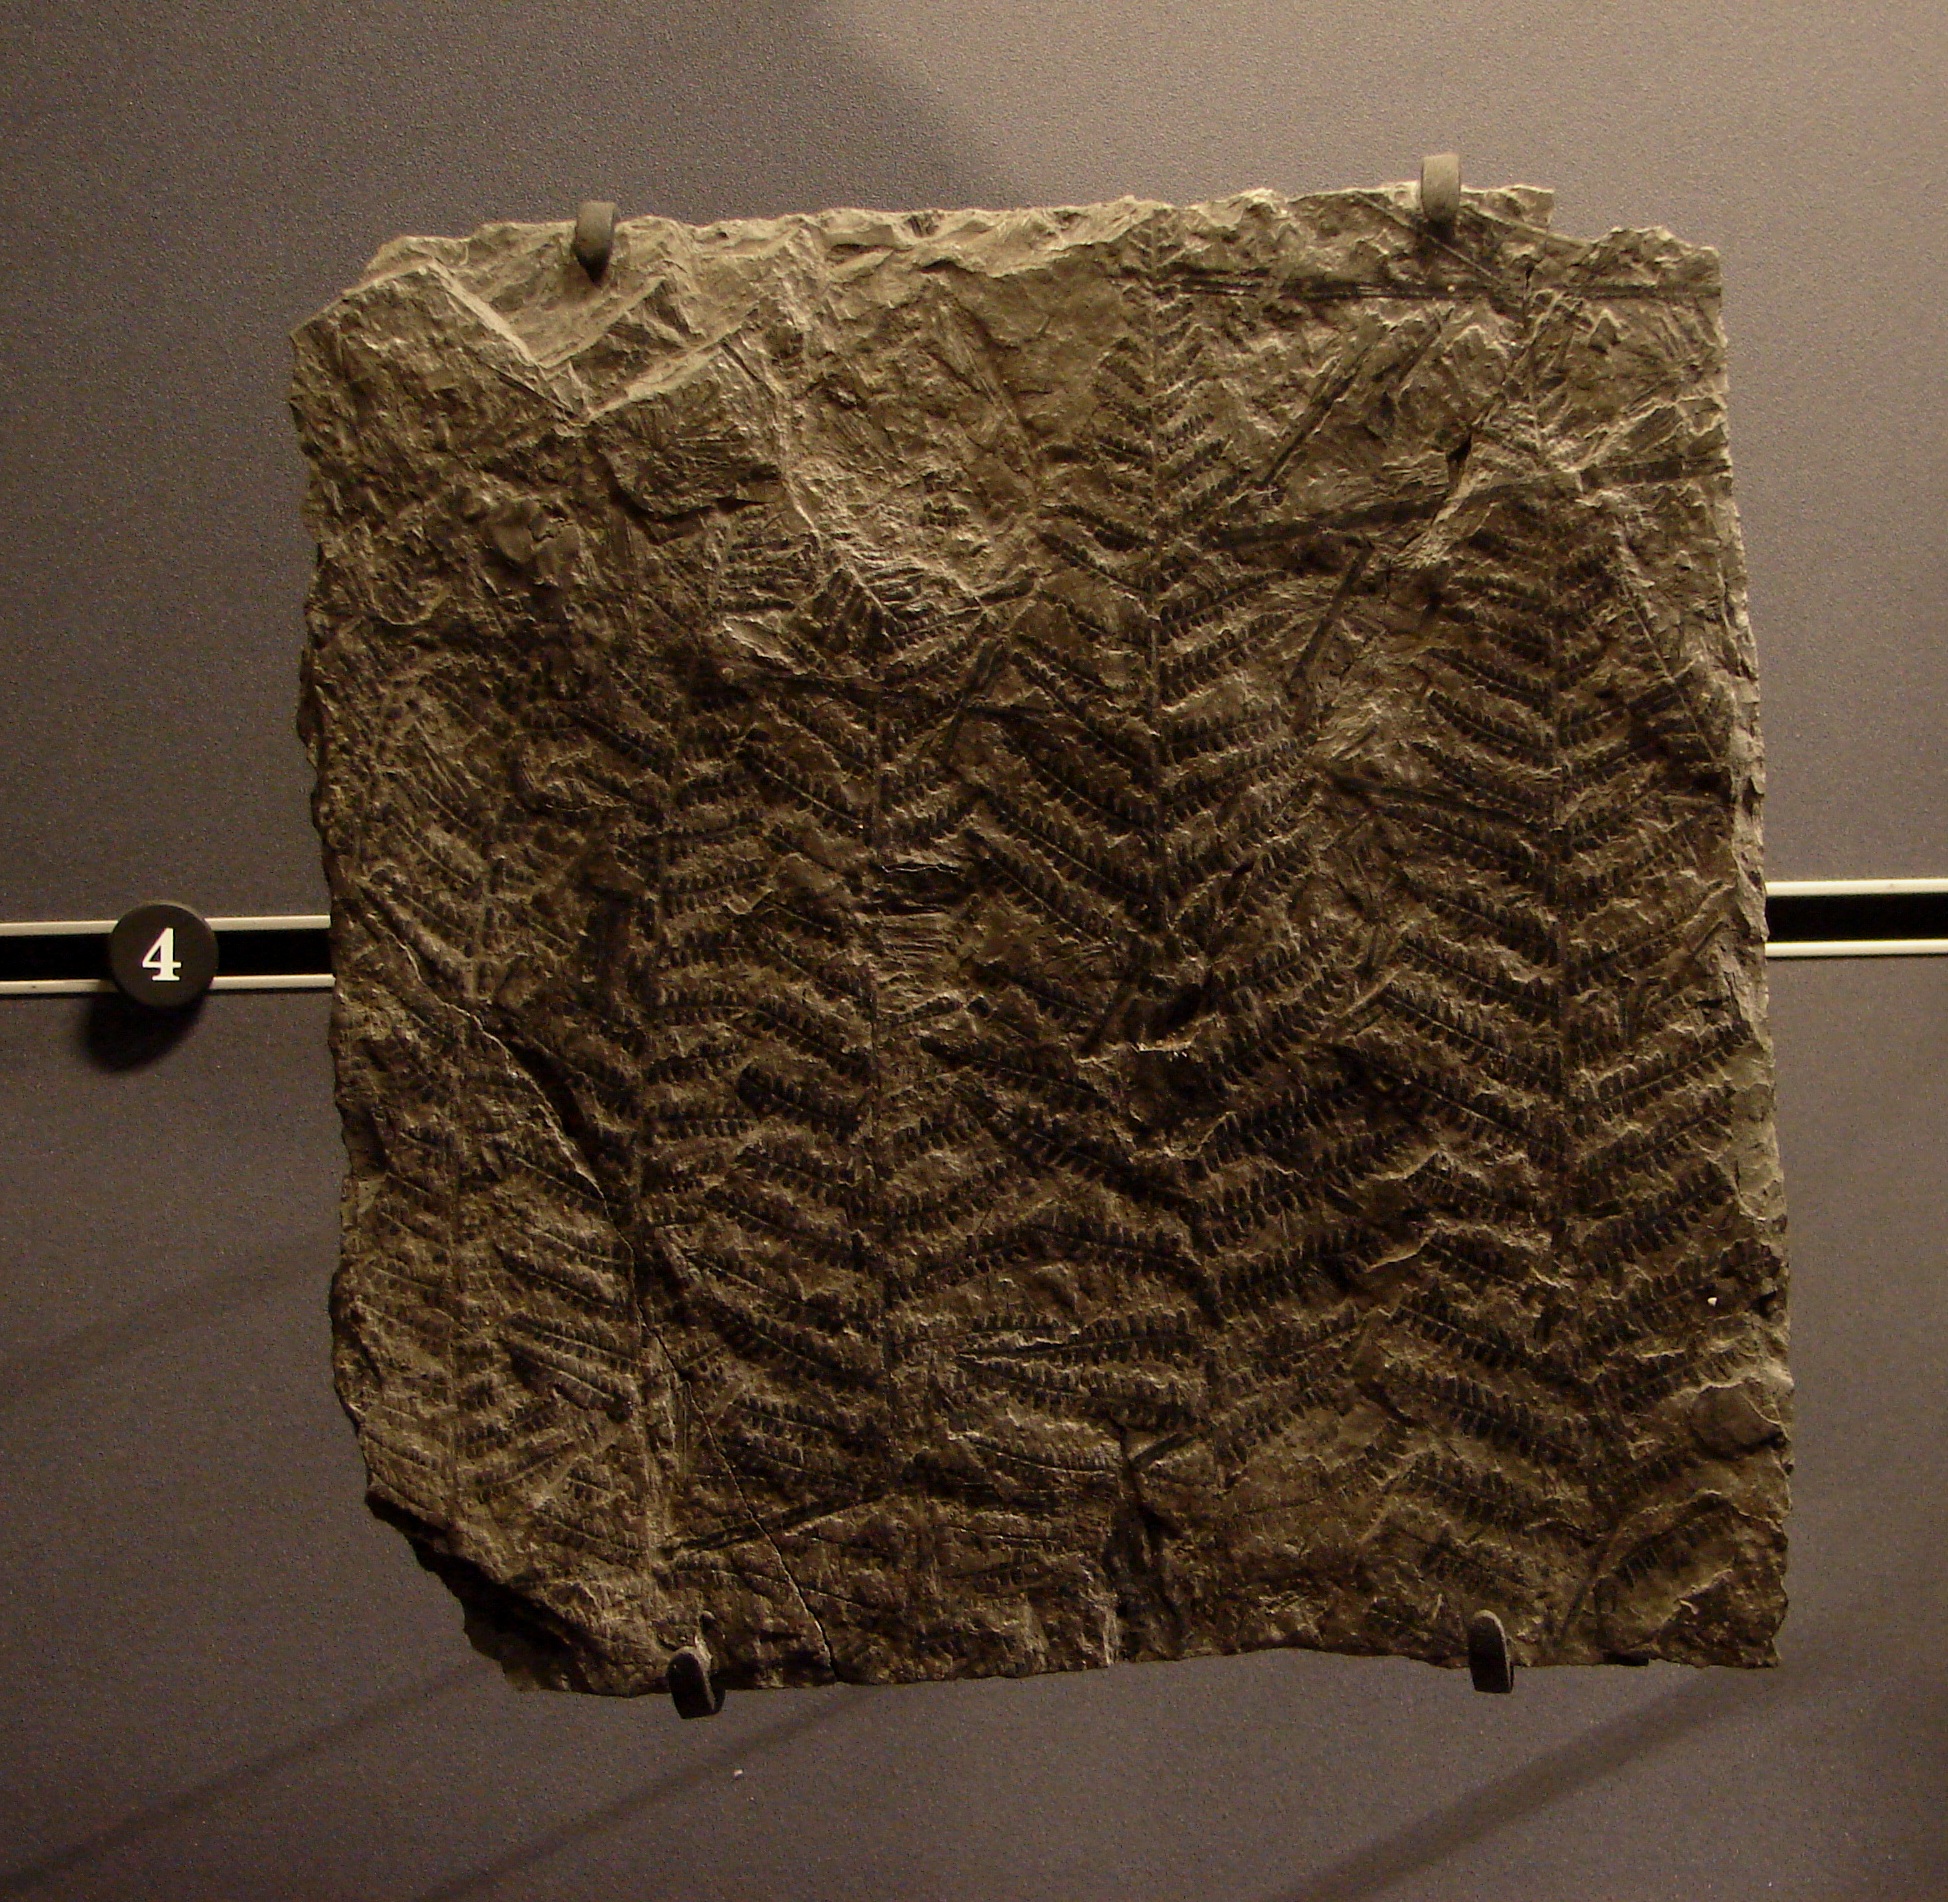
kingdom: Plantae
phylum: Tracheophyta
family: Pachytestaceae
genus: Neuropteris
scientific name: Neuropteris
